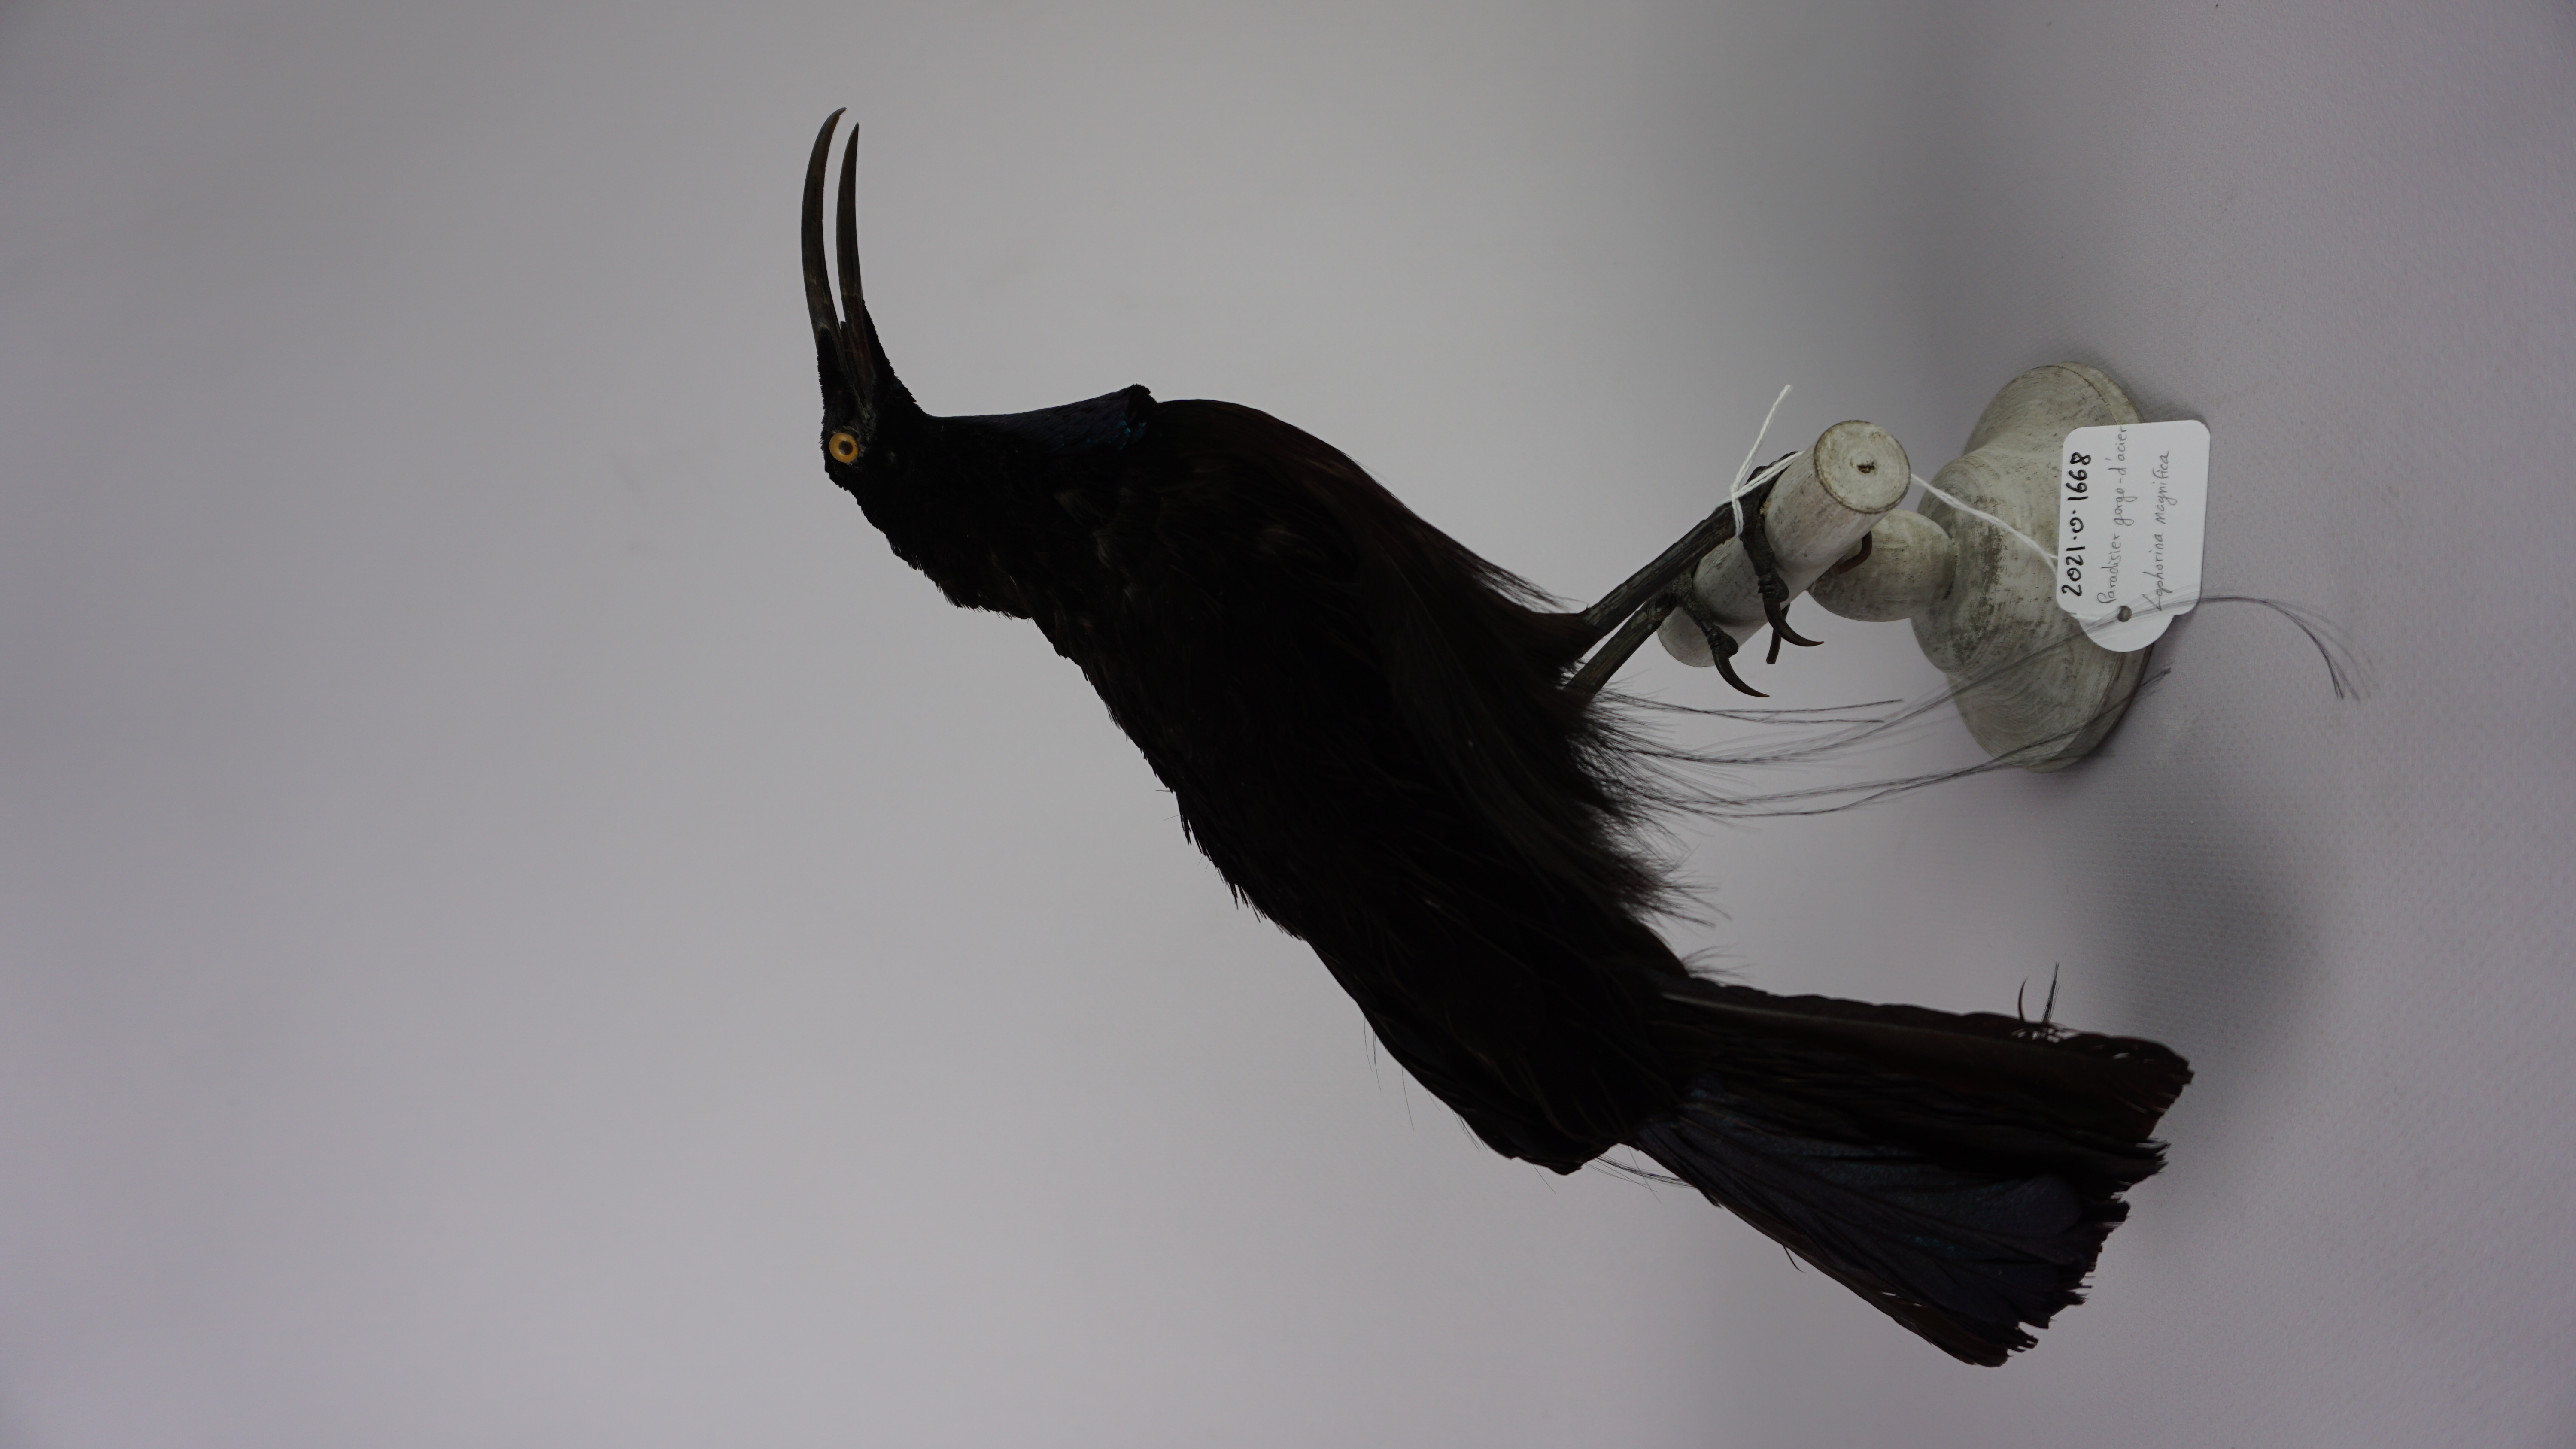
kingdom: Animalia
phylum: Chordata
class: Aves
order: Passeriformes
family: Paradisaeidae
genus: Ptiloris
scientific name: Ptiloris magnificus
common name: Magnificent riflebird
